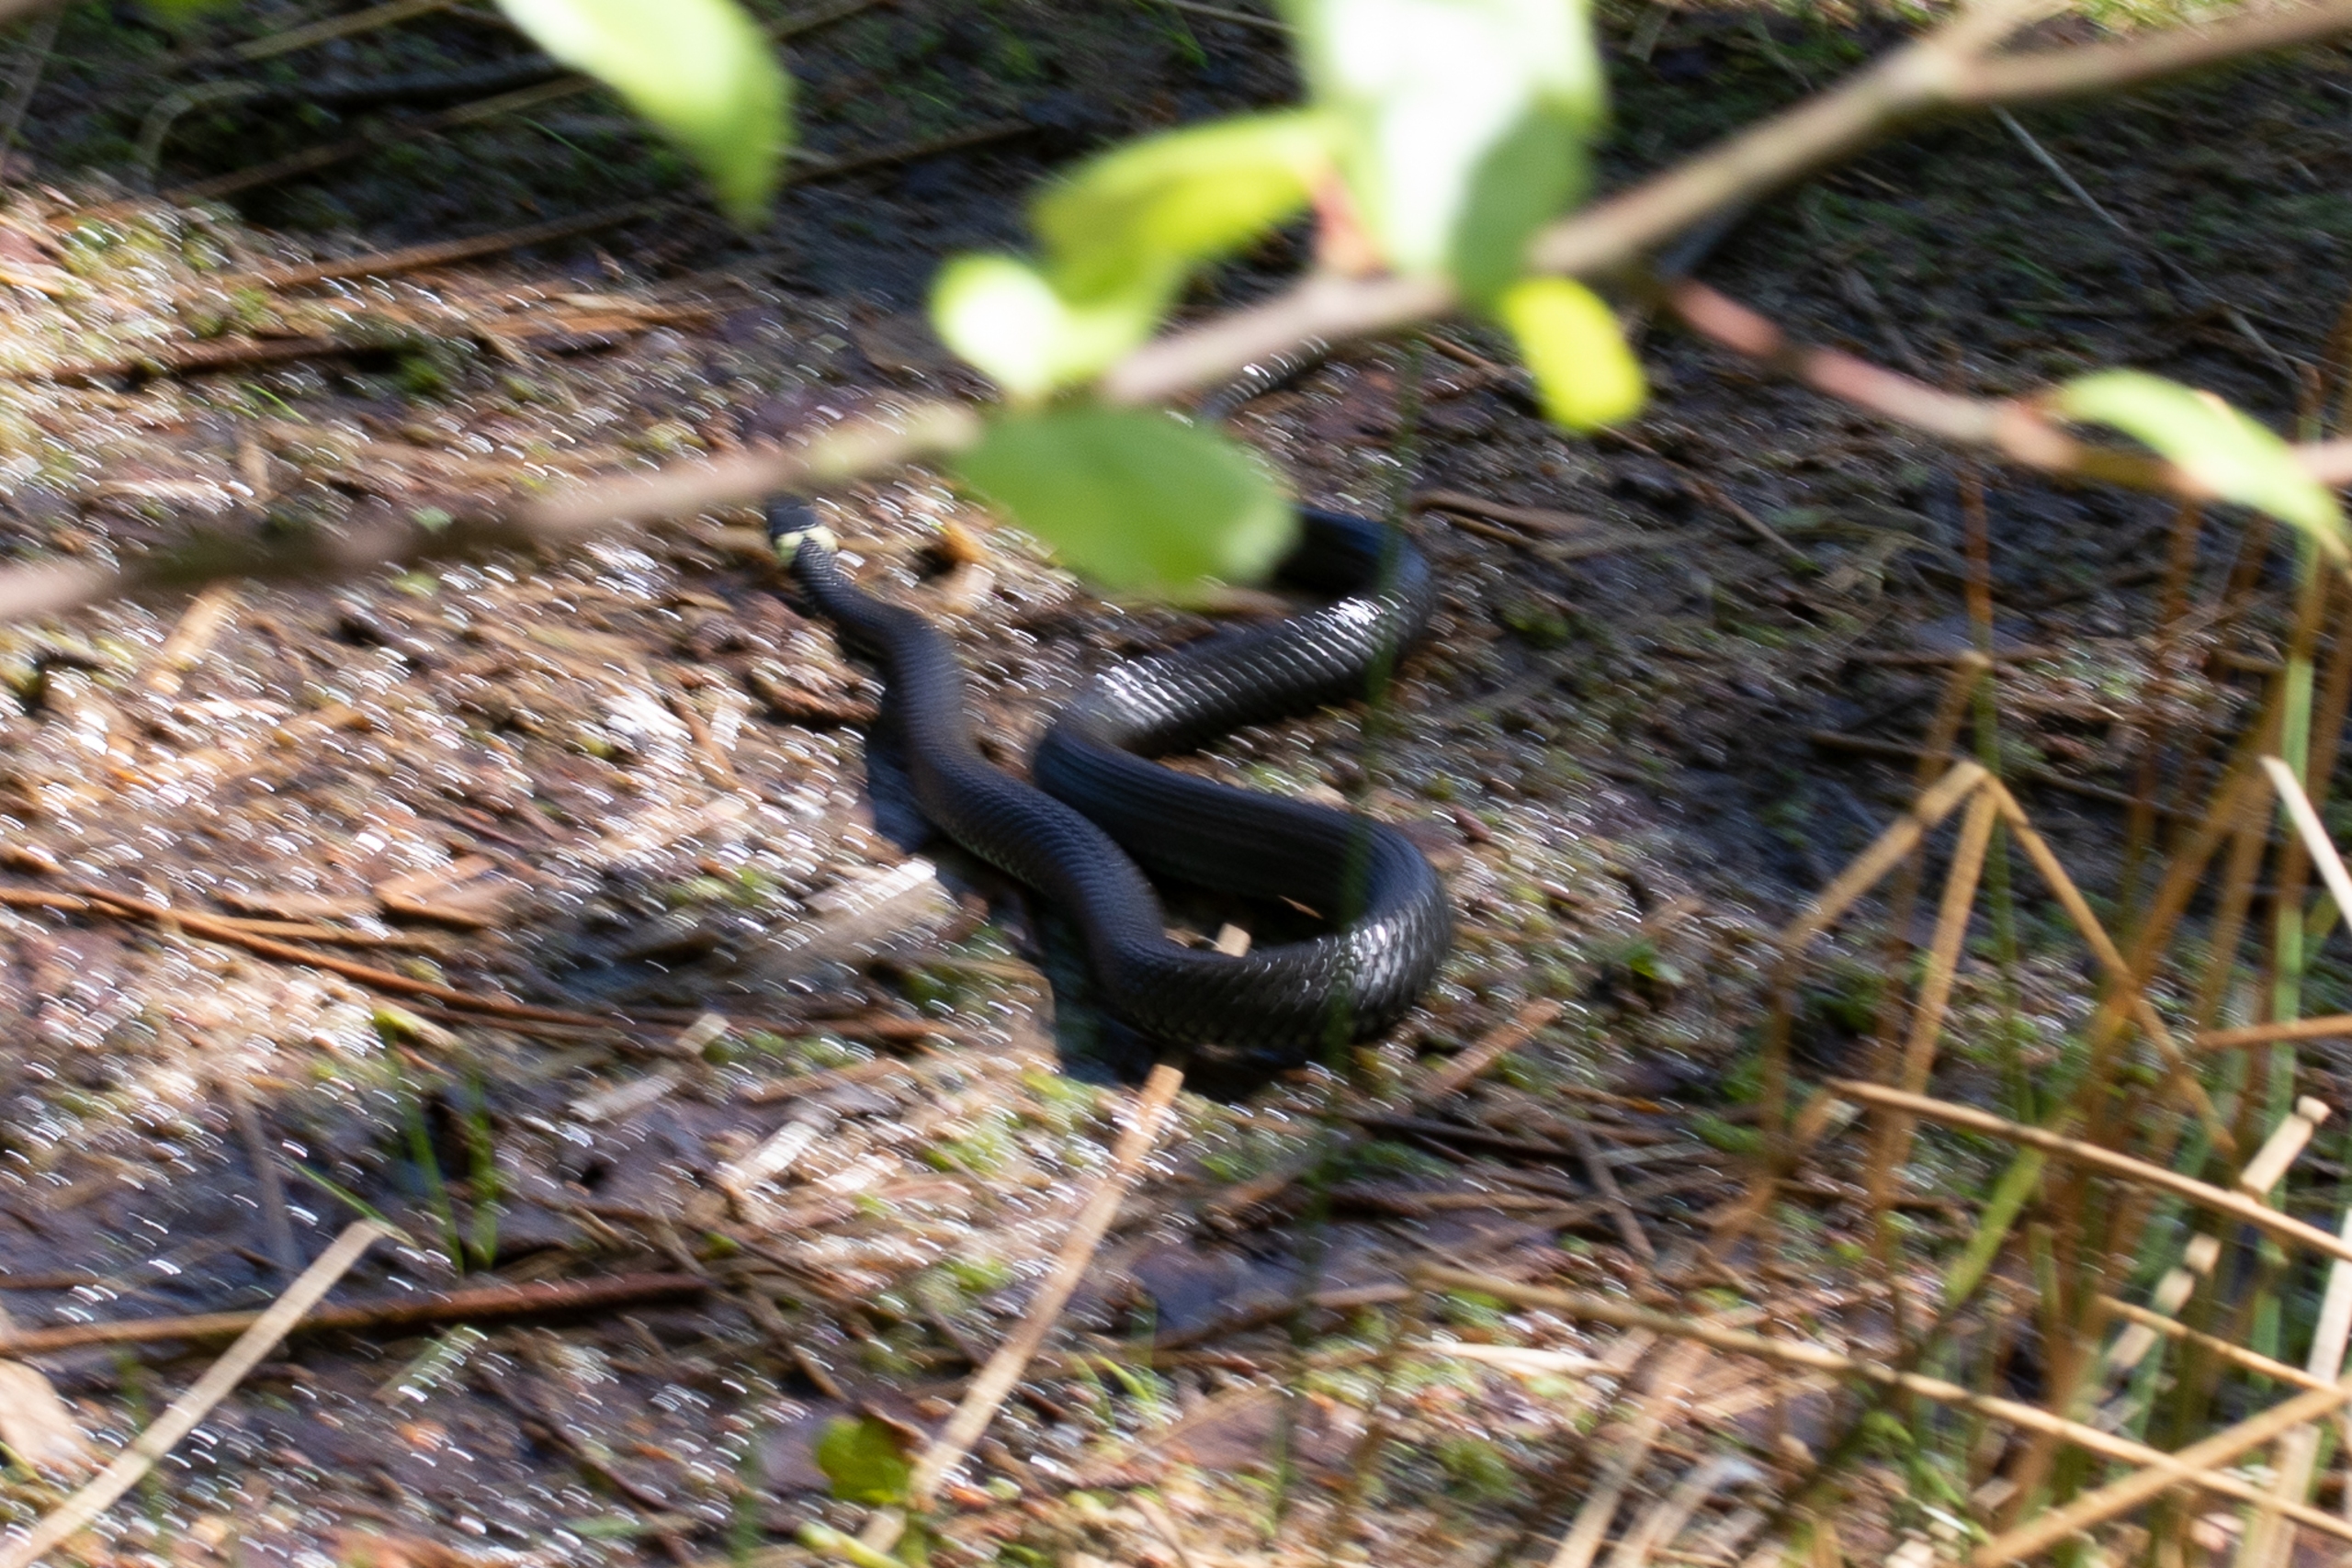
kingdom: Animalia
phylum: Chordata
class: Squamata
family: Colubridae
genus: Natrix
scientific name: Natrix natrix
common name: Snog
